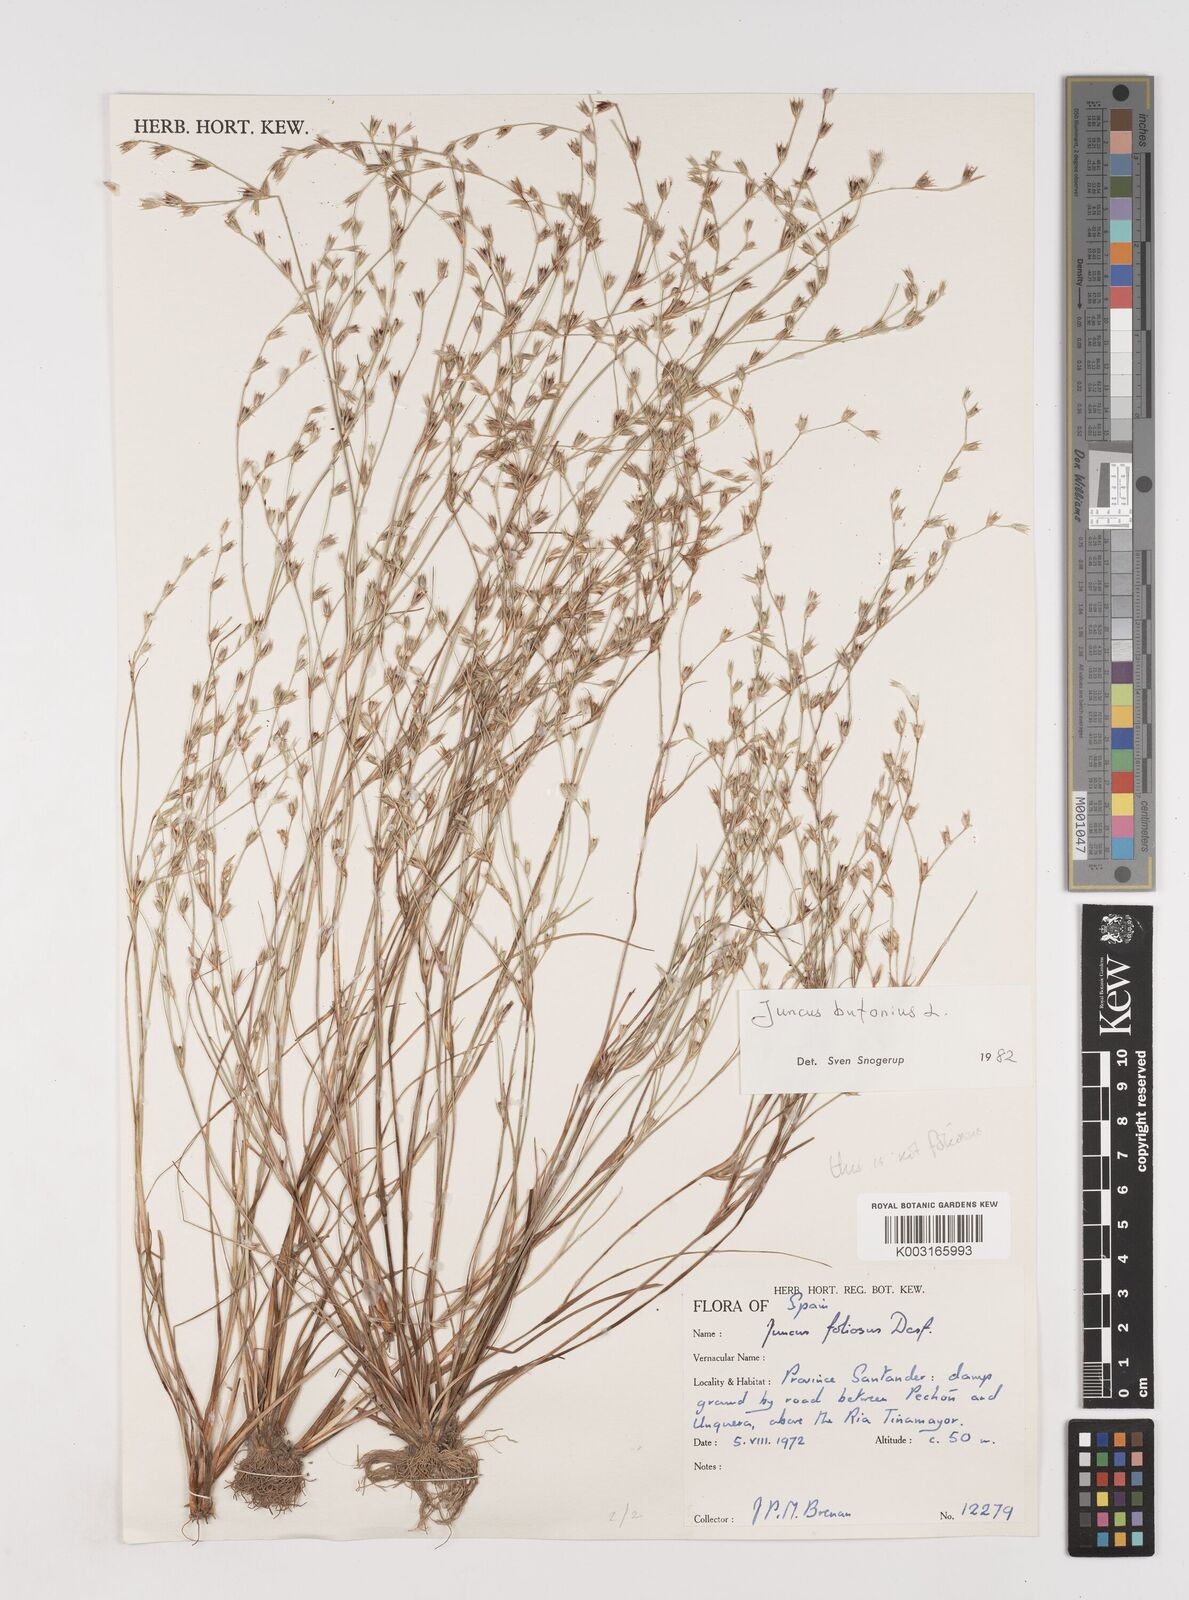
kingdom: Plantae
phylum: Tracheophyta
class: Liliopsida
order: Poales
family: Juncaceae
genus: Juncus
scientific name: Juncus bufonius
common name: Toad rush
